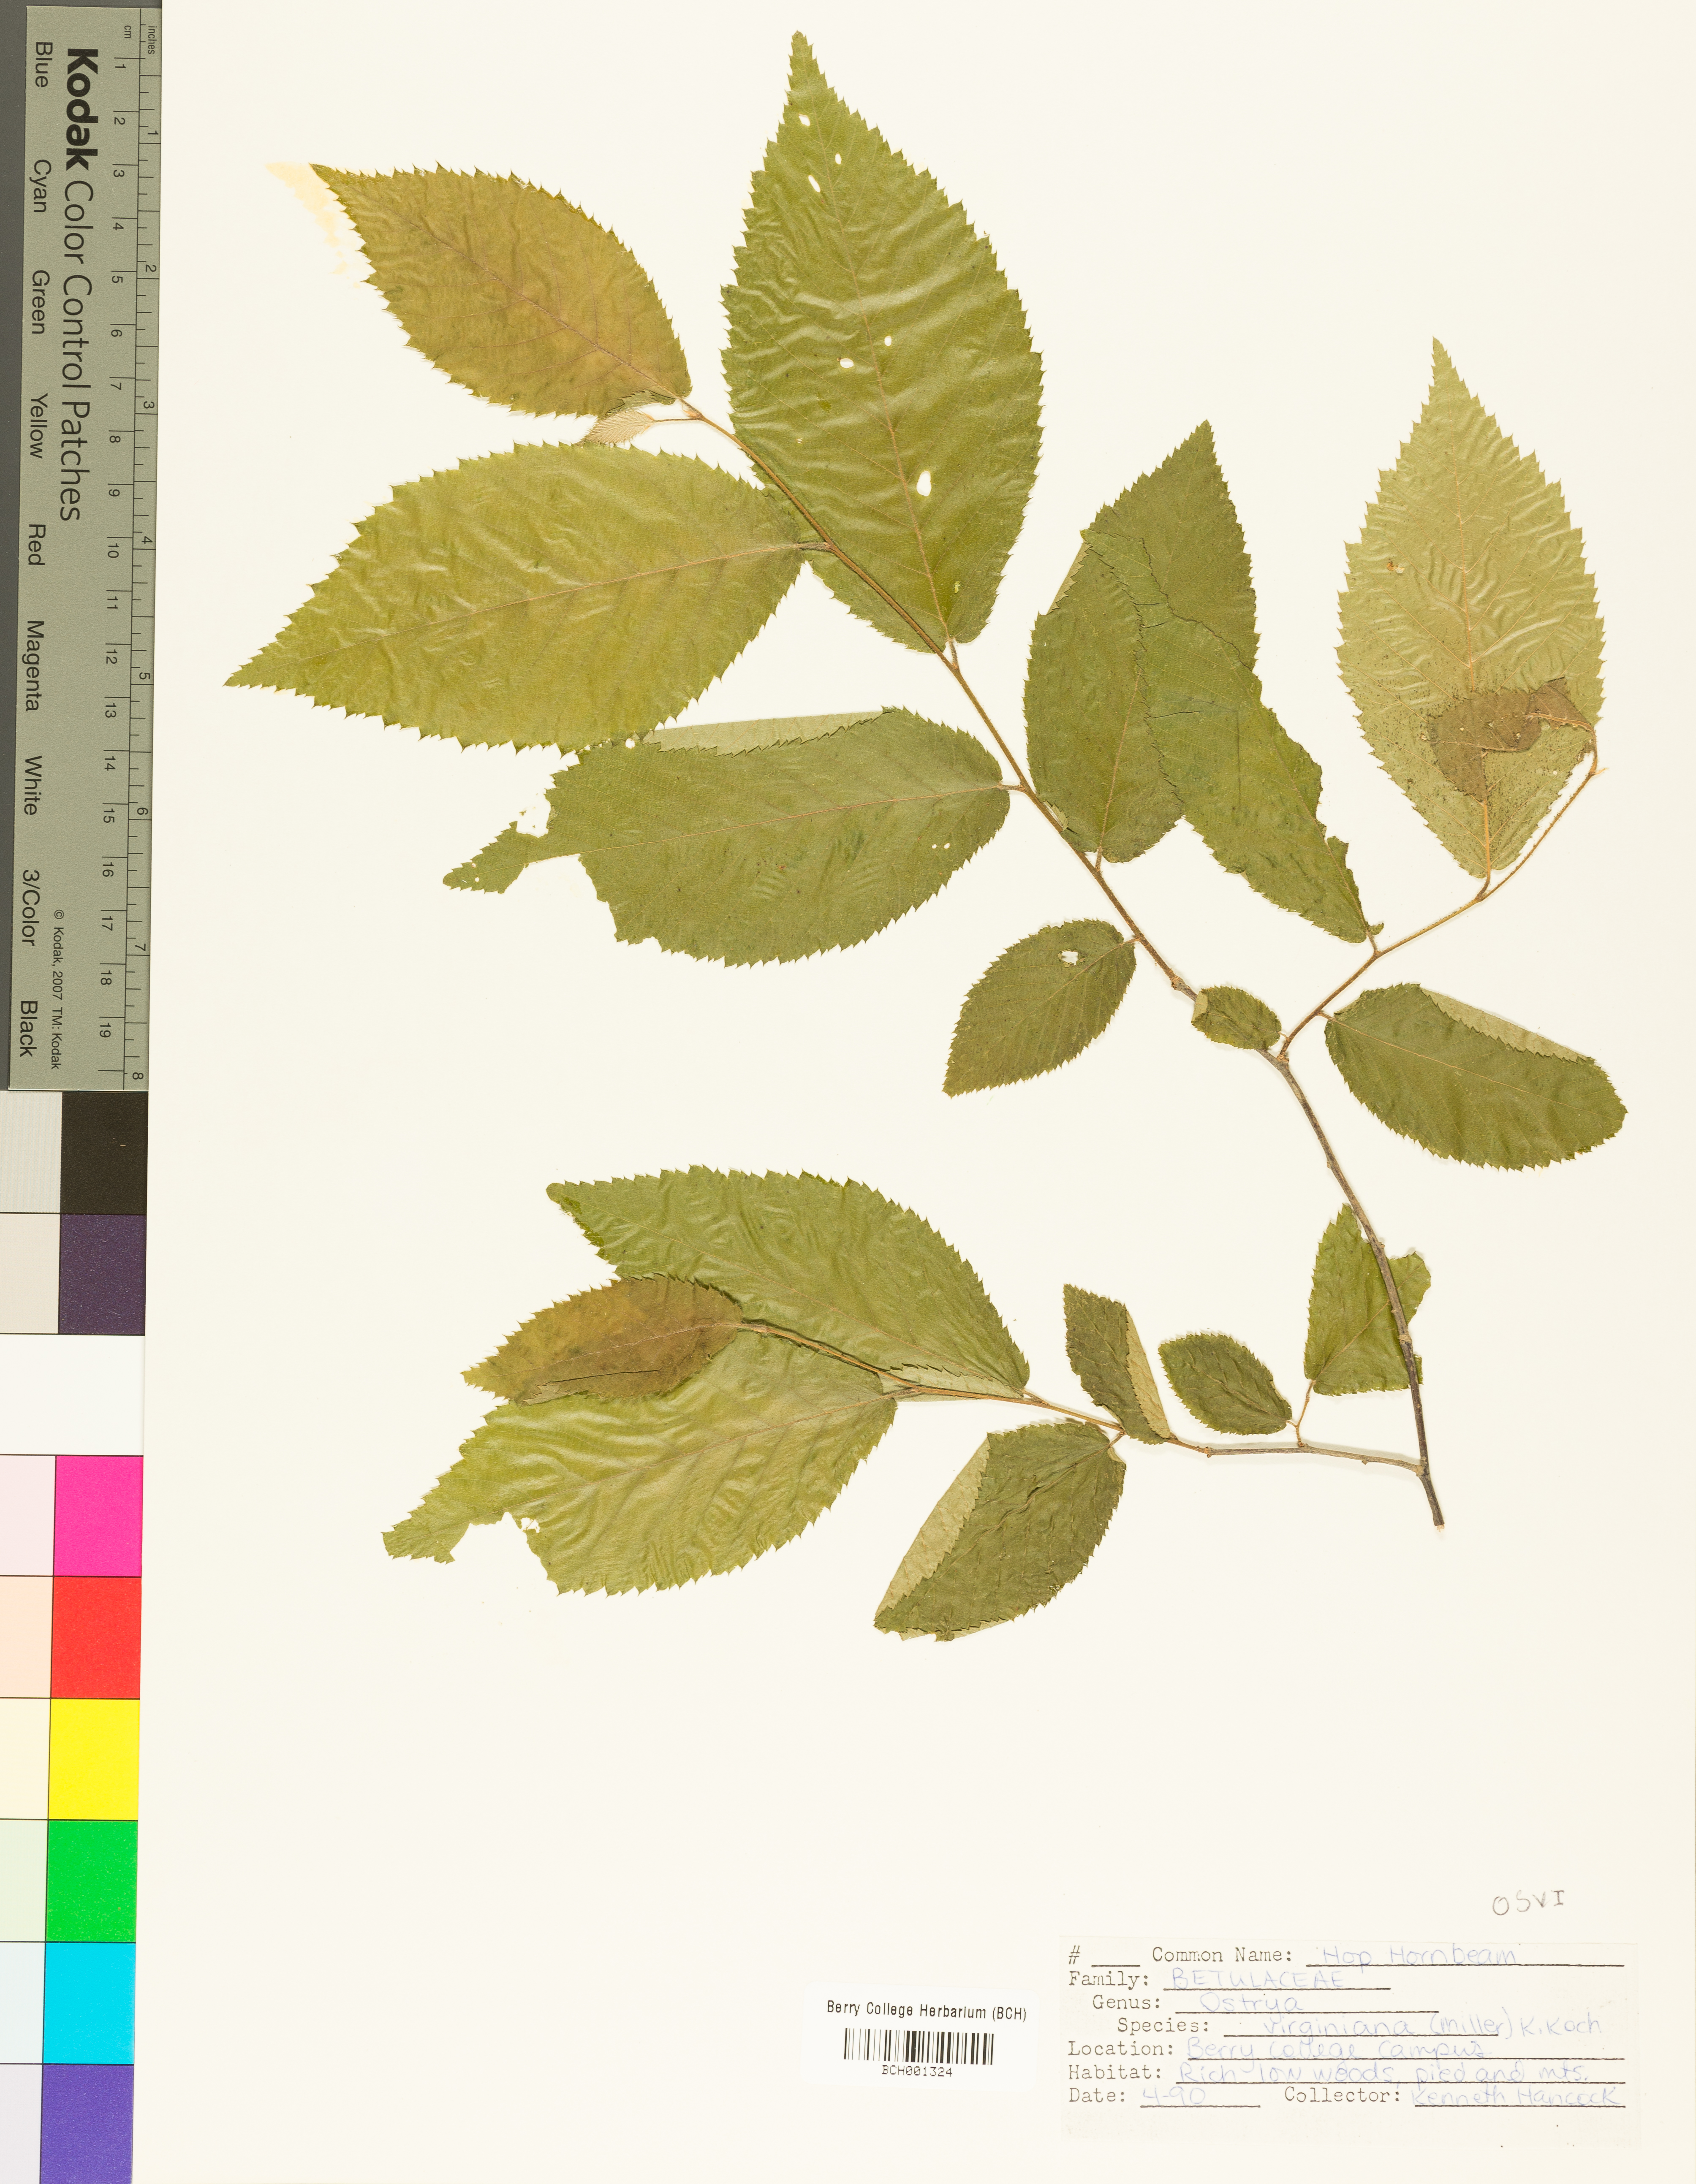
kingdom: Plantae
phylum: Tracheophyta
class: Magnoliopsida
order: Fagales
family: Betulaceae
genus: Ostrya
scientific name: Ostrya virginiana
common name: Ironwood
